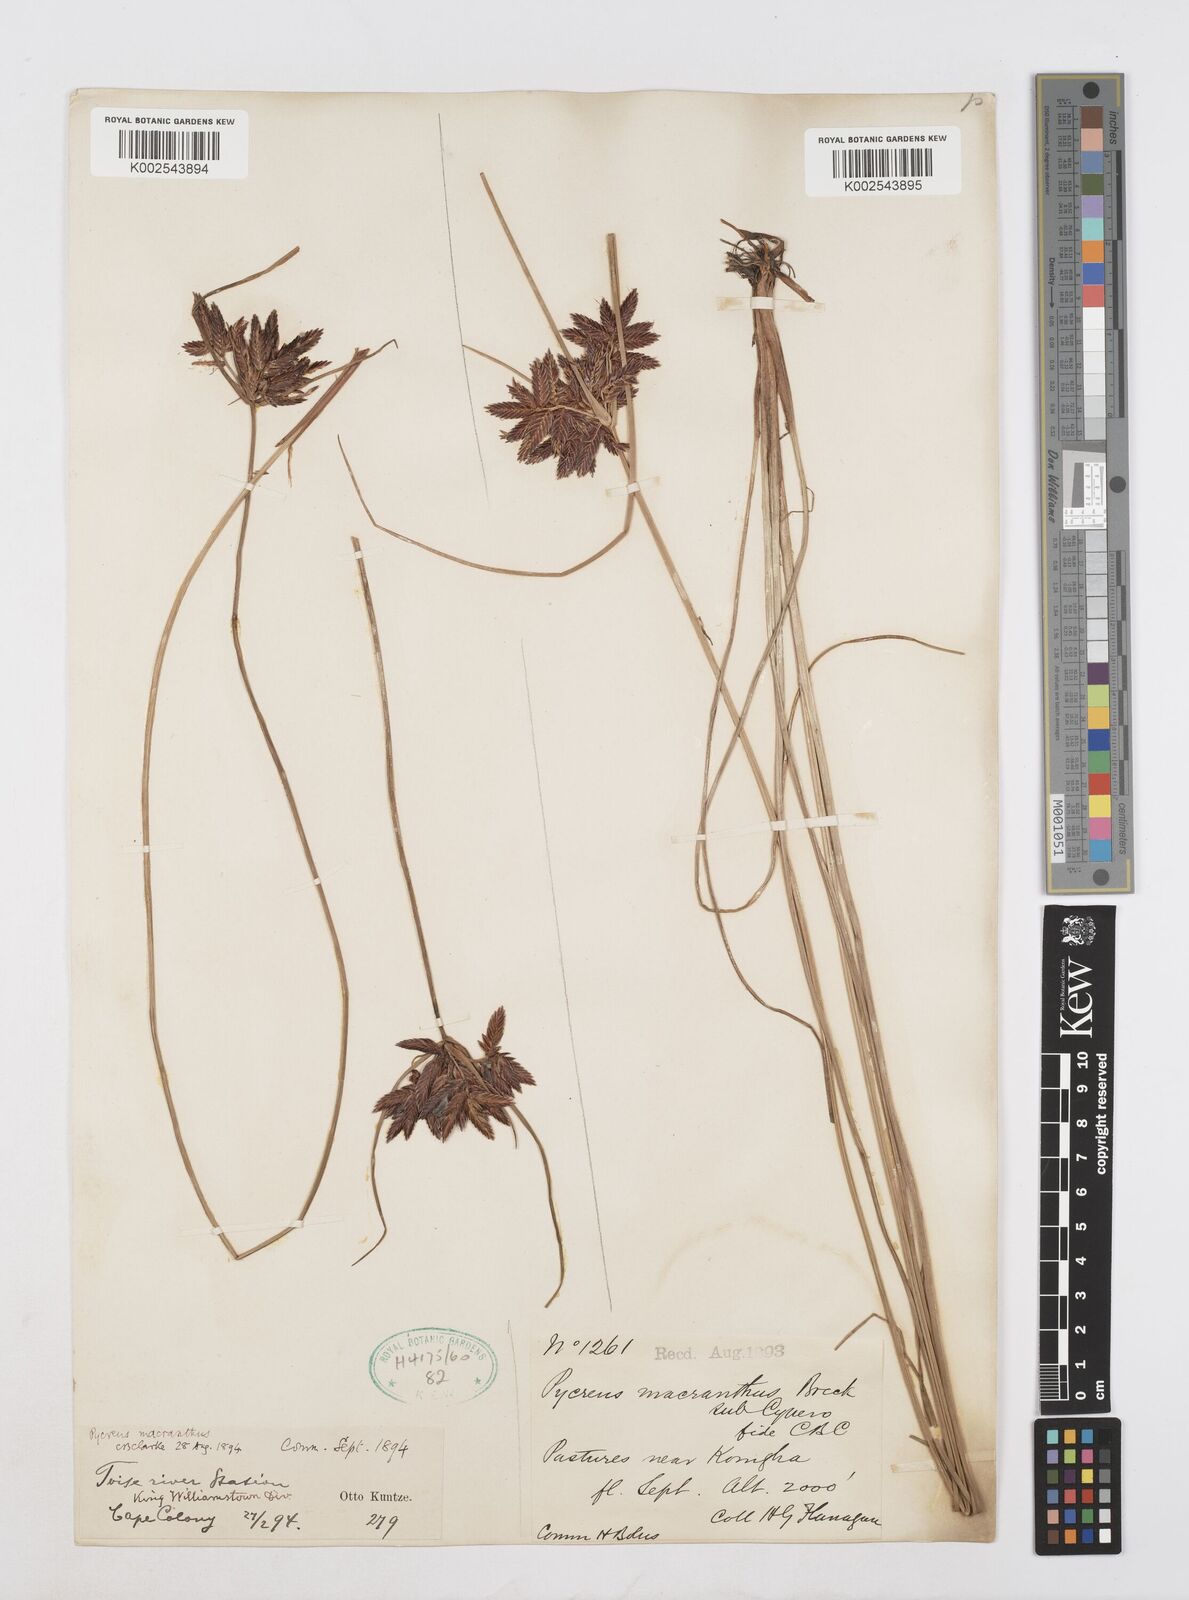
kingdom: Plantae
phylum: Tracheophyta
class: Liliopsida
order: Poales
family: Cyperaceae
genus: Cyperus
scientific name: Cyperus nigricans
